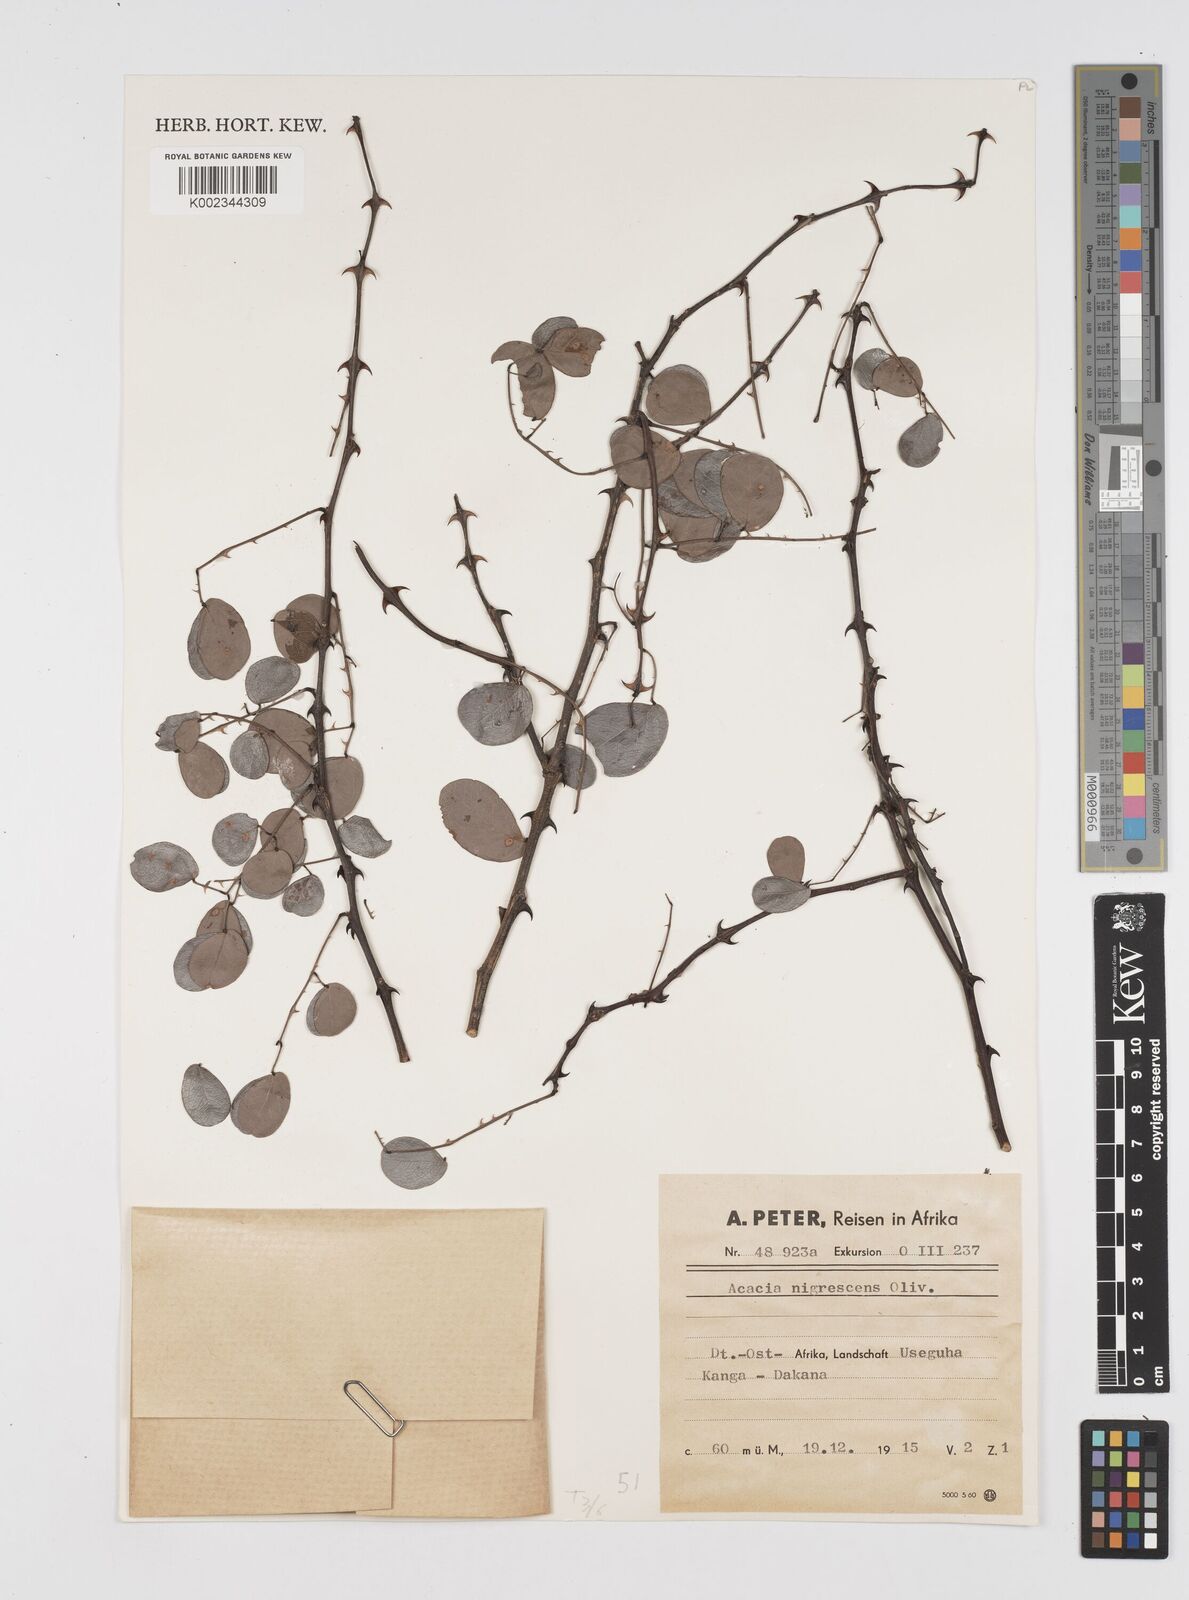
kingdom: Plantae
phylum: Tracheophyta
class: Magnoliopsida
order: Fabales
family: Fabaceae
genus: Senegalia
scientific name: Senegalia nigrescens
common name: Knobthorn
